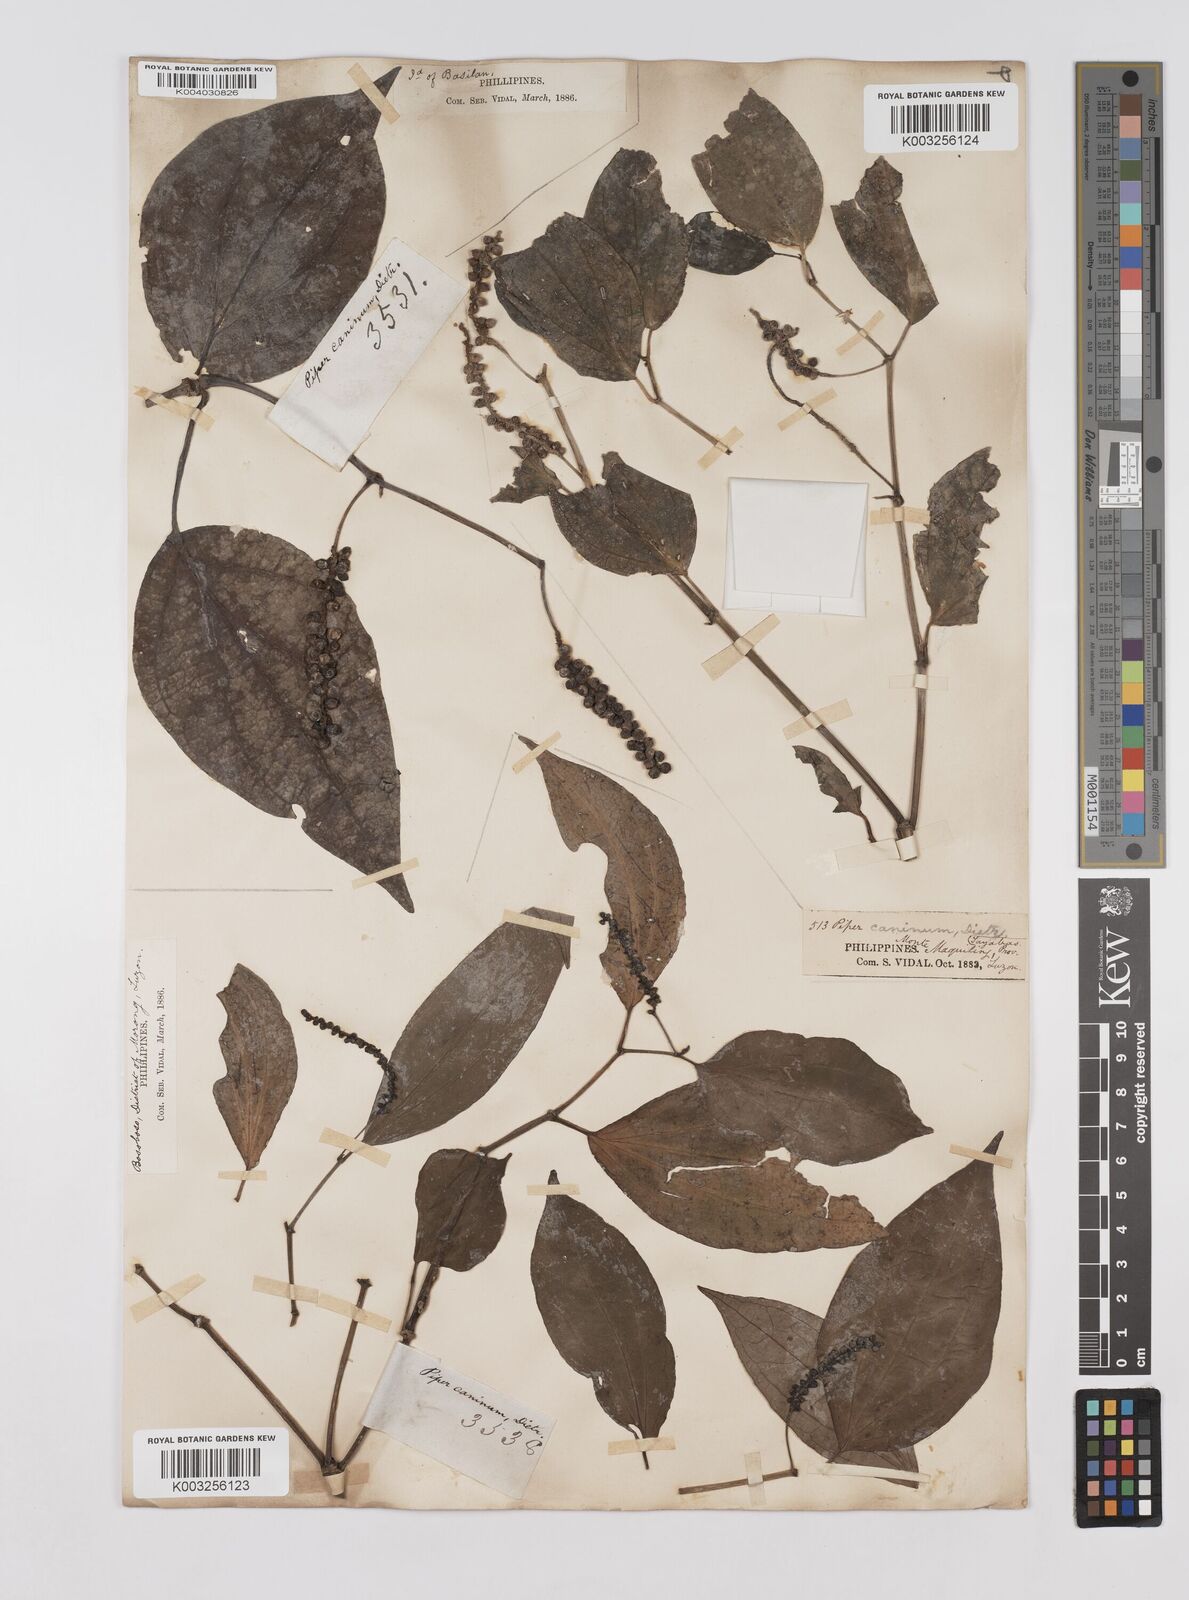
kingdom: Plantae
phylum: Tracheophyta
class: Magnoliopsida
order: Piperales
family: Piperaceae
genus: Piper
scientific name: Piper lanatum
